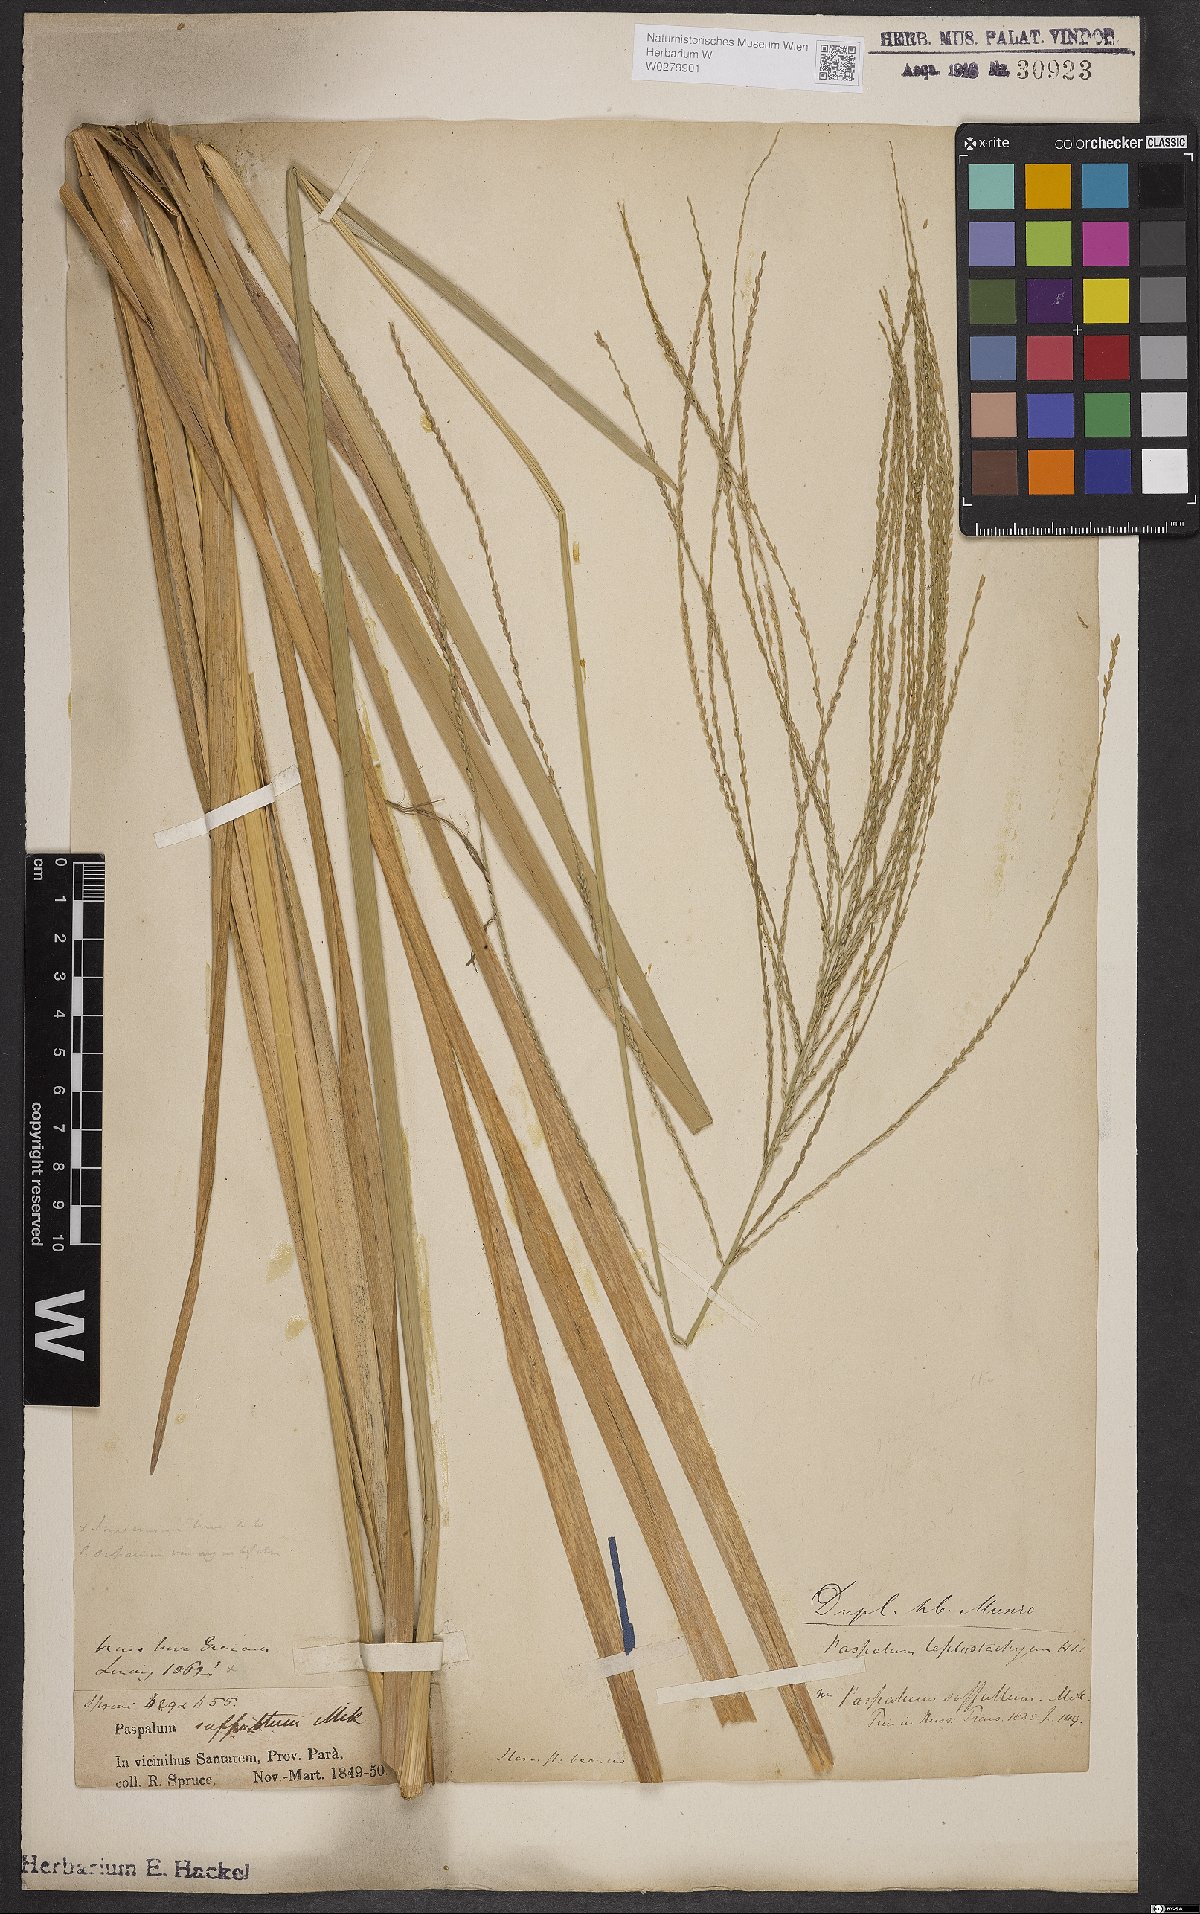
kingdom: Plantae
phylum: Tracheophyta
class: Liliopsida
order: Poales
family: Poaceae
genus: Axonopus
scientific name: Axonopus scoparius
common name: Imperial grass
